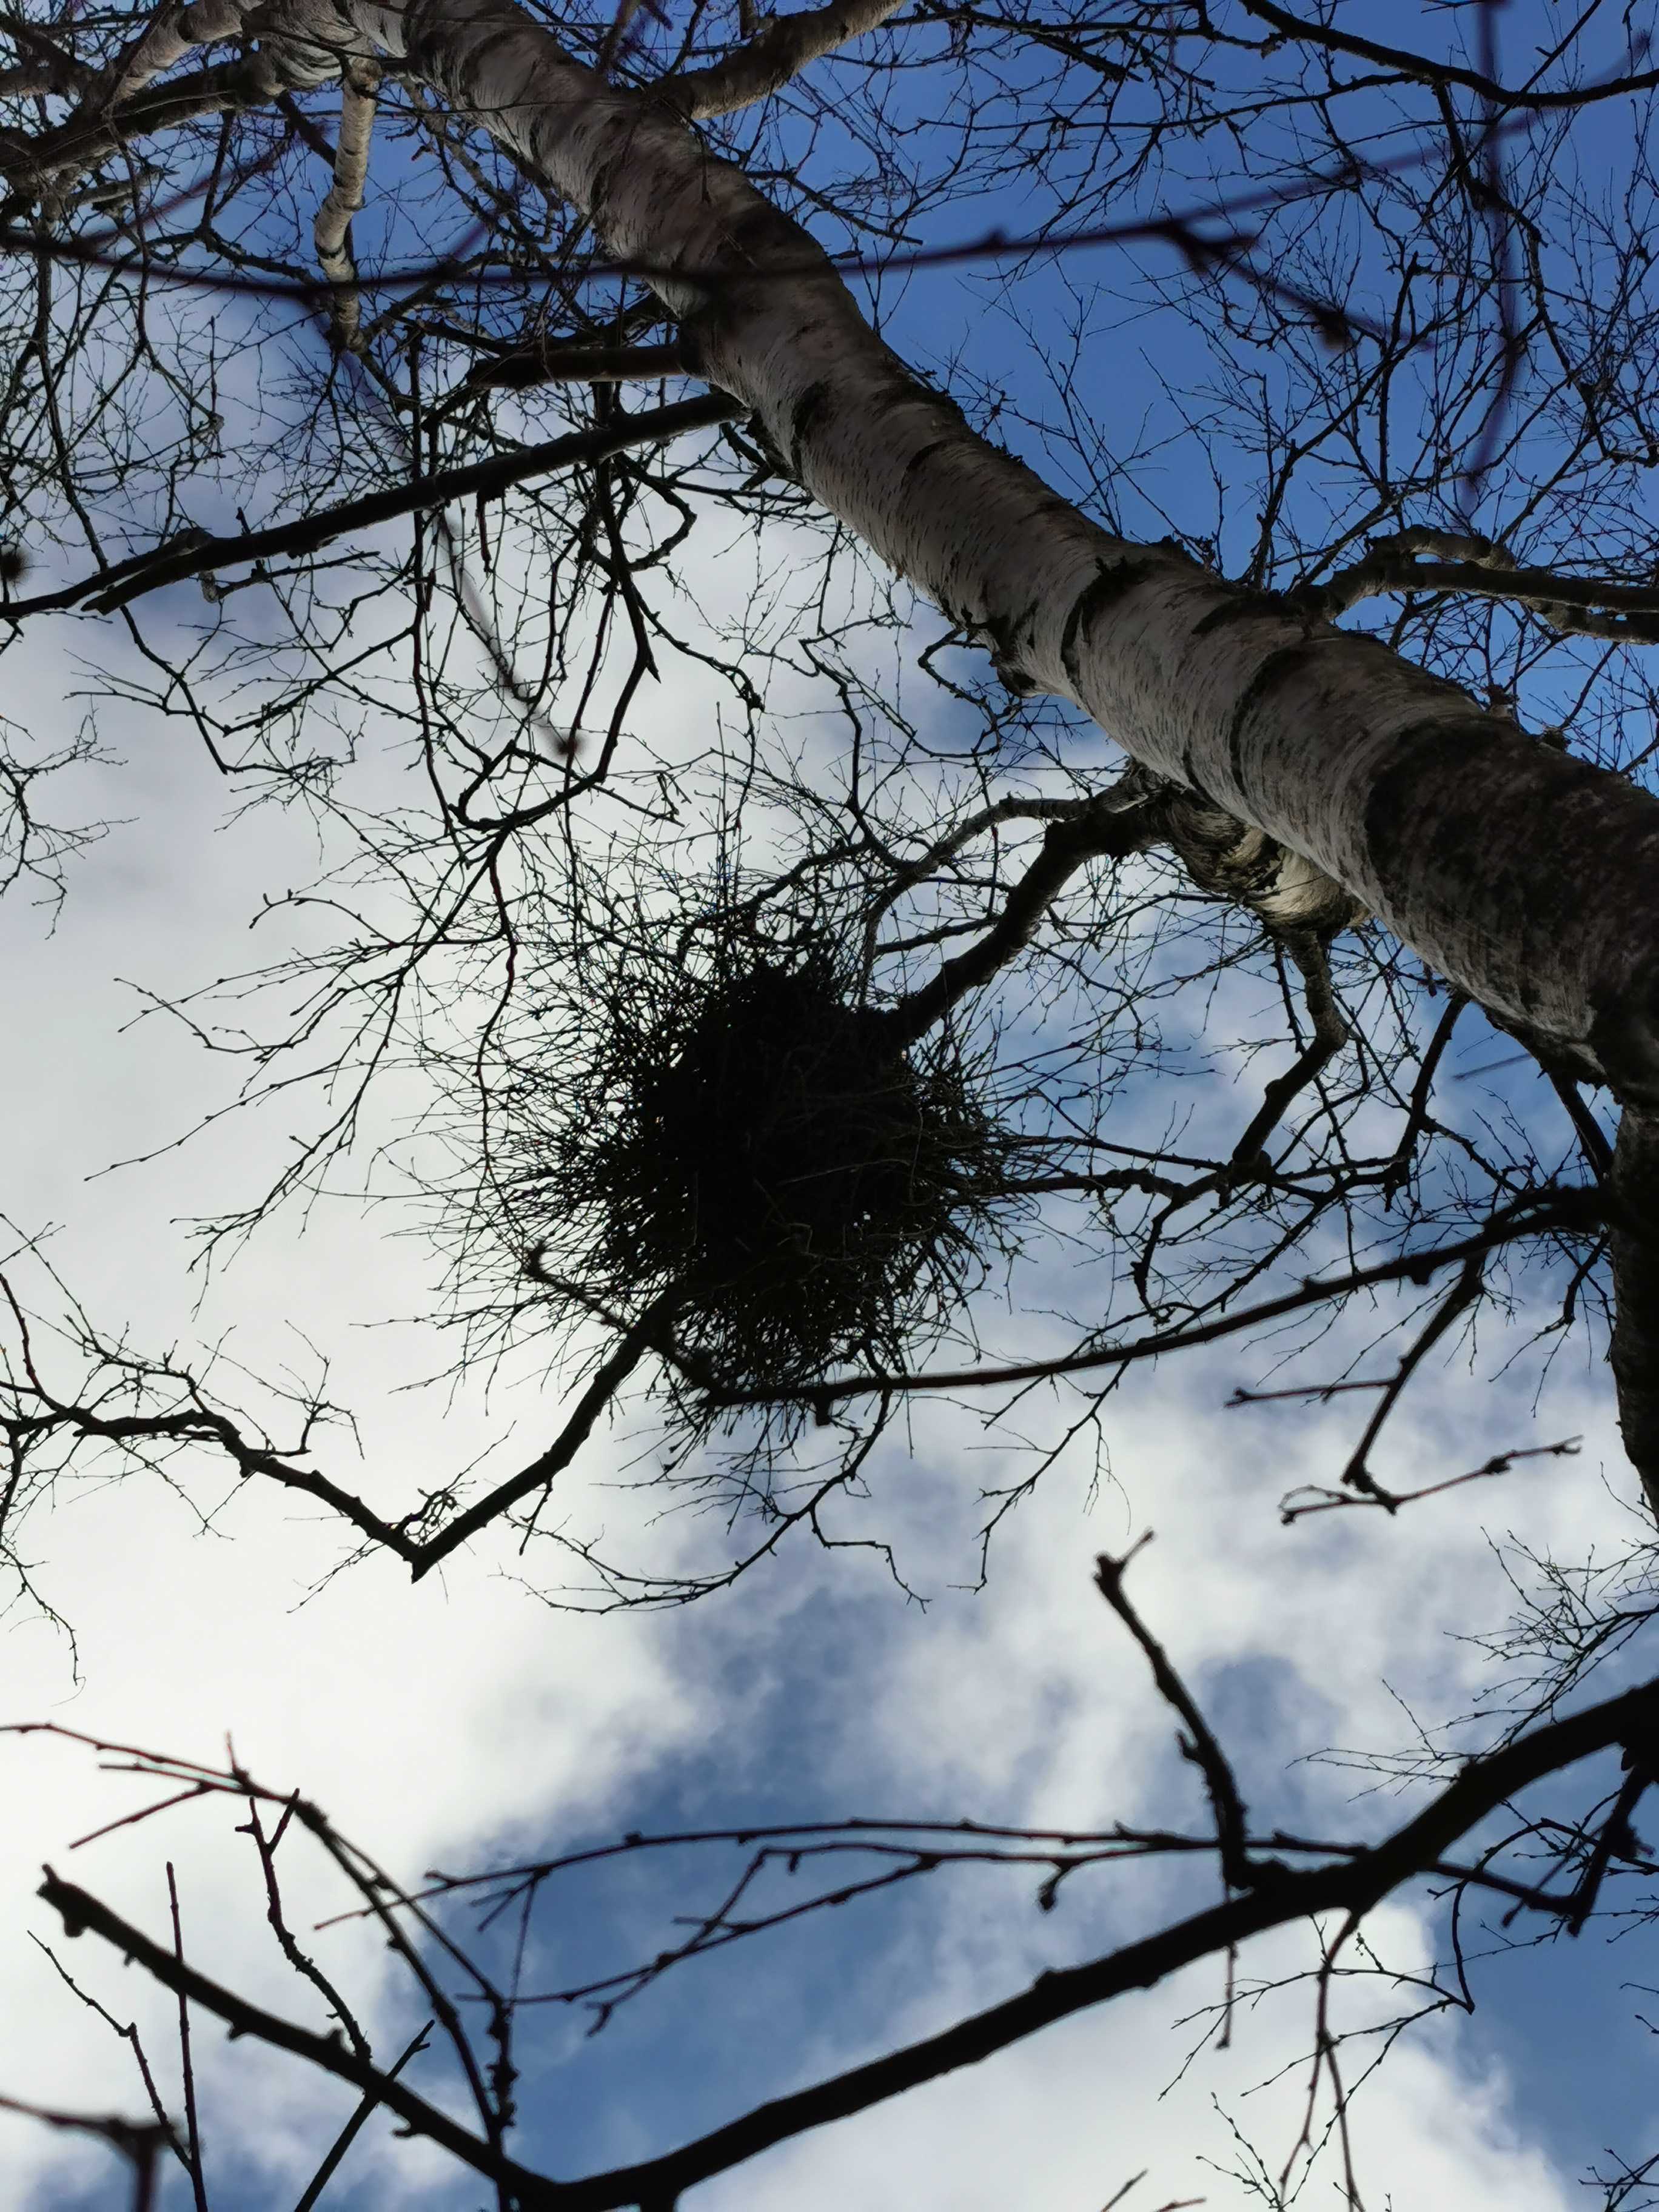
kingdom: Fungi
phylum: Ascomycota
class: Taphrinomycetes
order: Taphrinales
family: Taphrinaceae
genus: Taphrina
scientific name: Taphrina betulina
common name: hekse-sækdug
